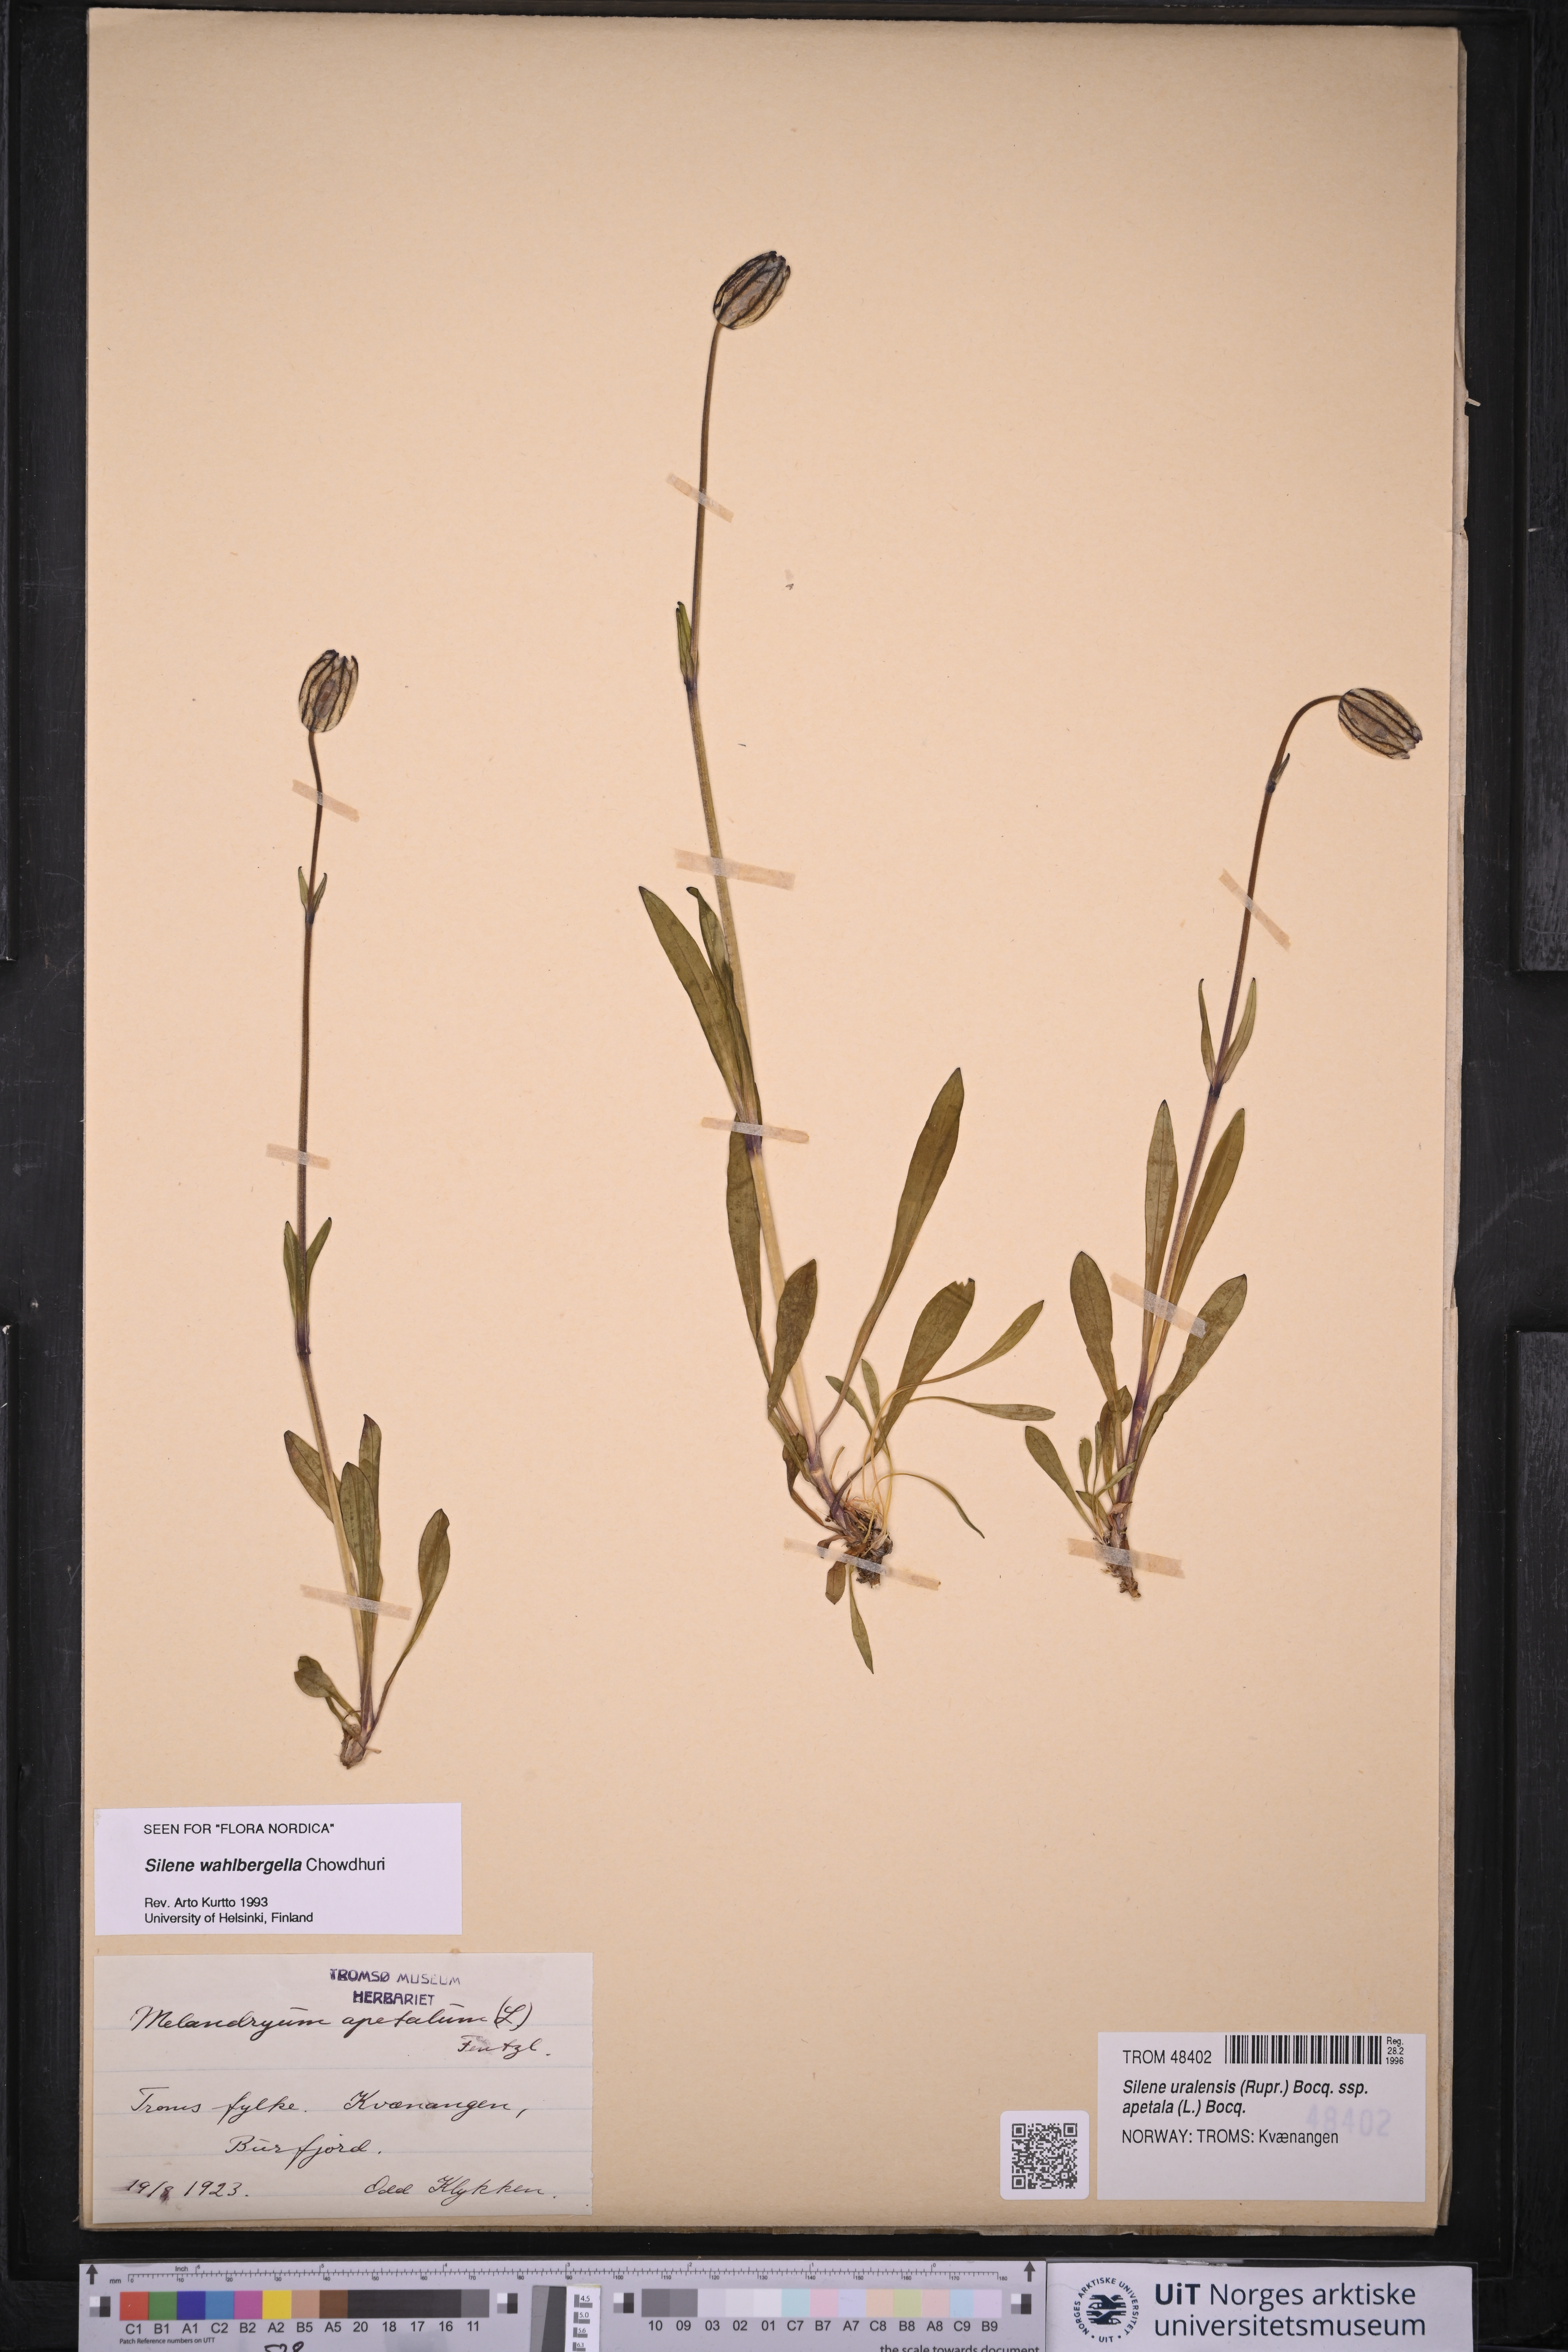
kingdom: Plantae
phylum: Tracheophyta
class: Magnoliopsida
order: Caryophyllales
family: Caryophyllaceae
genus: Silene
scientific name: Silene wahlbergella
